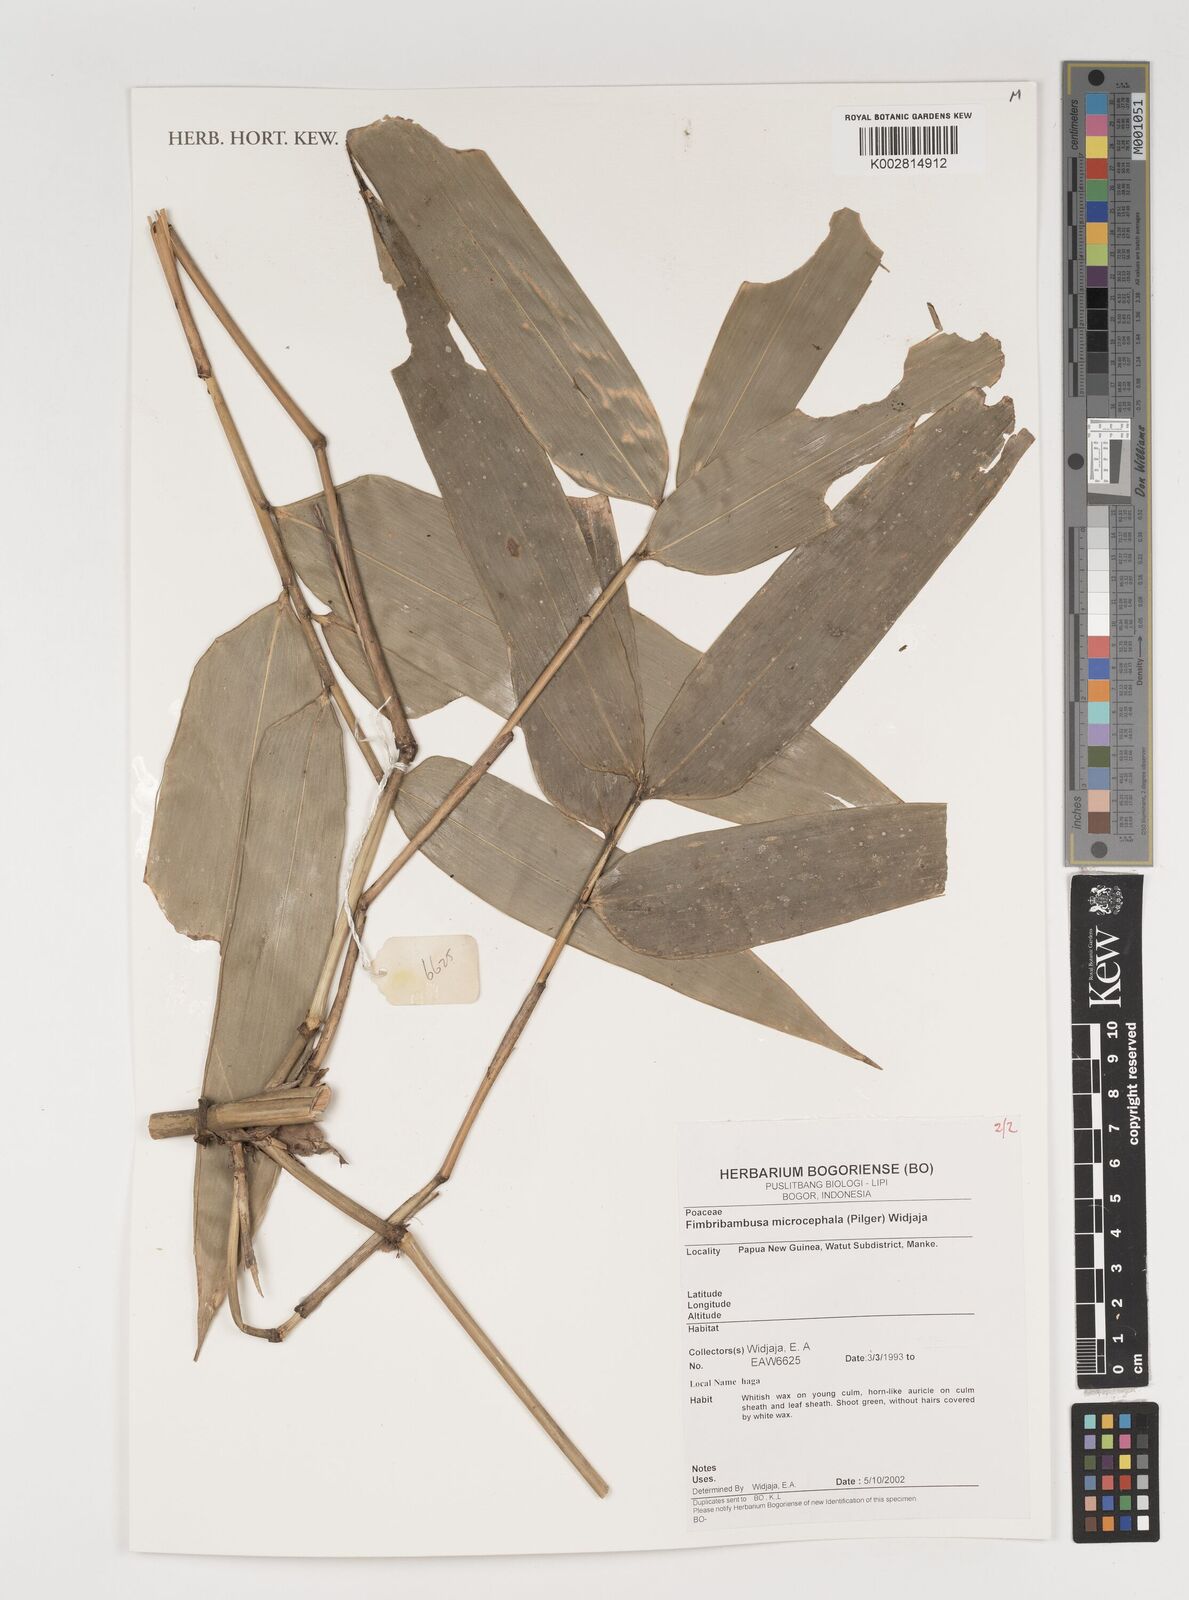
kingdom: Plantae
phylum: Tracheophyta
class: Liliopsida
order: Poales
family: Poaceae
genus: Fimbribambusa
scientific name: Fimbribambusa microcephala
